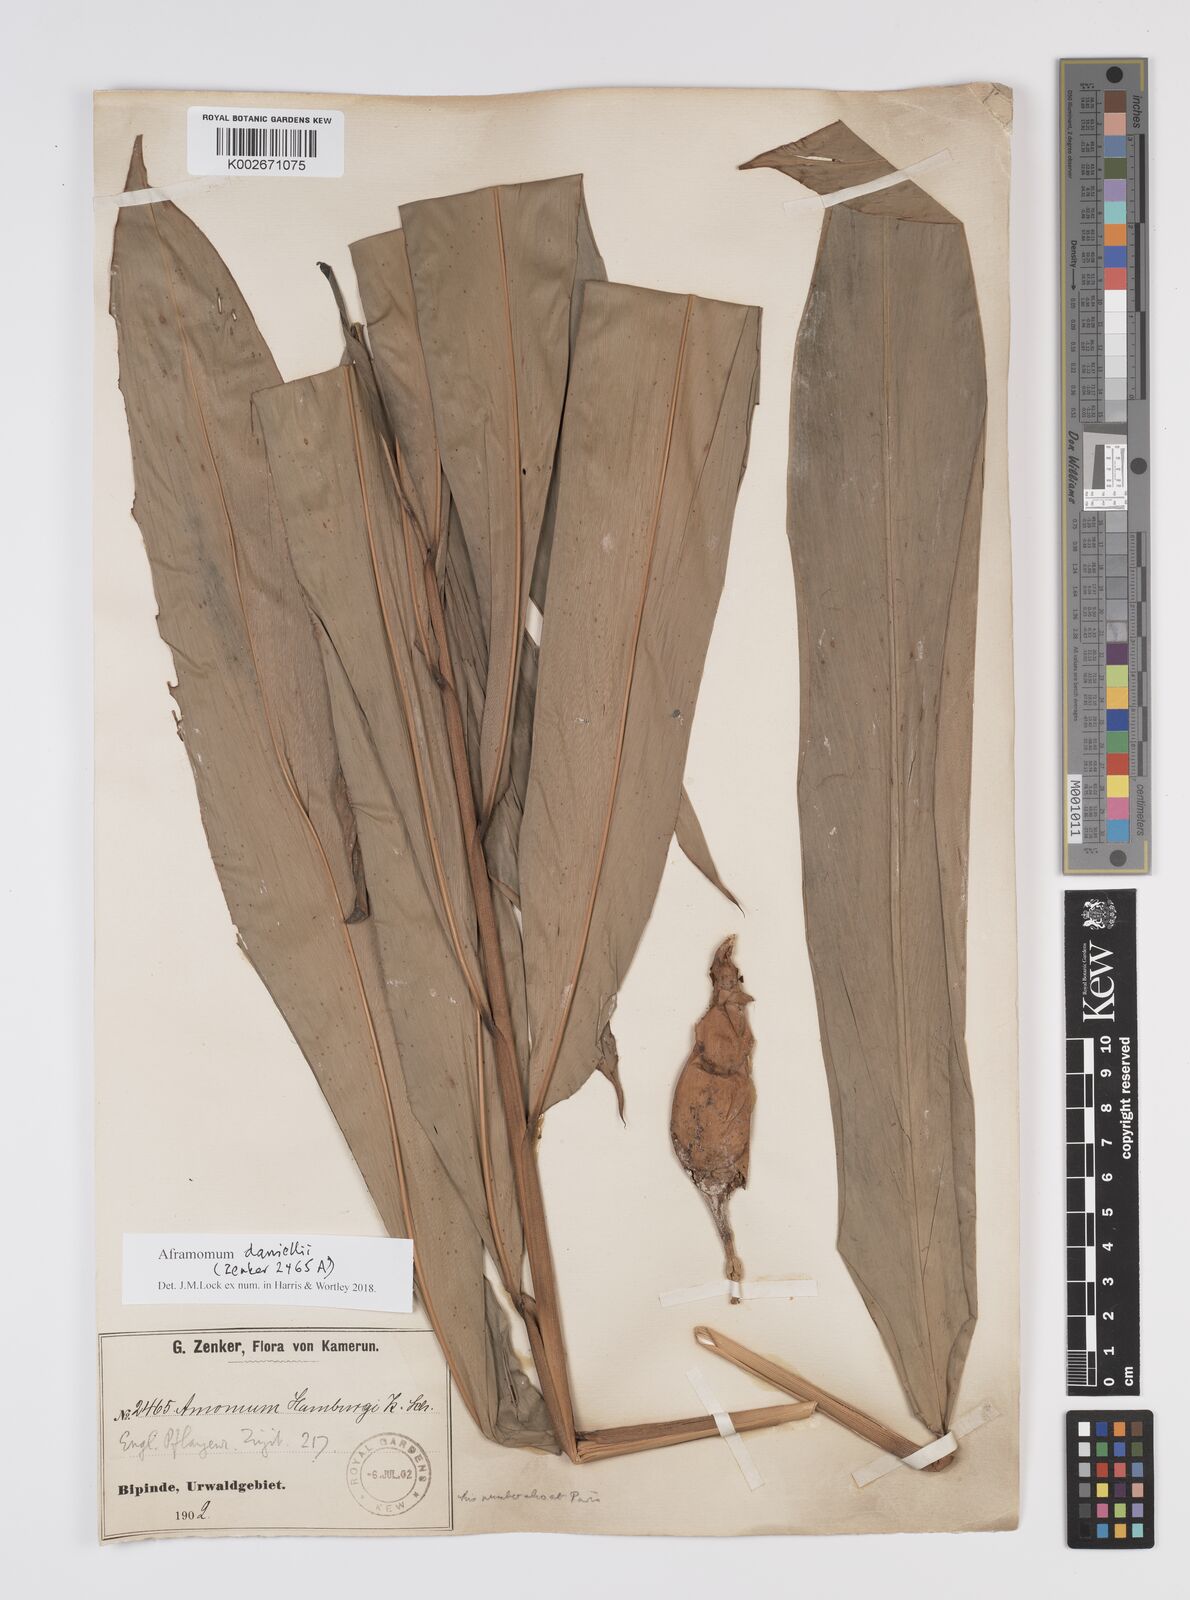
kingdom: Plantae
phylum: Tracheophyta
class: Liliopsida
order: Zingiberales
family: Zingiberaceae
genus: Aframomum
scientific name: Aframomum daniellii
